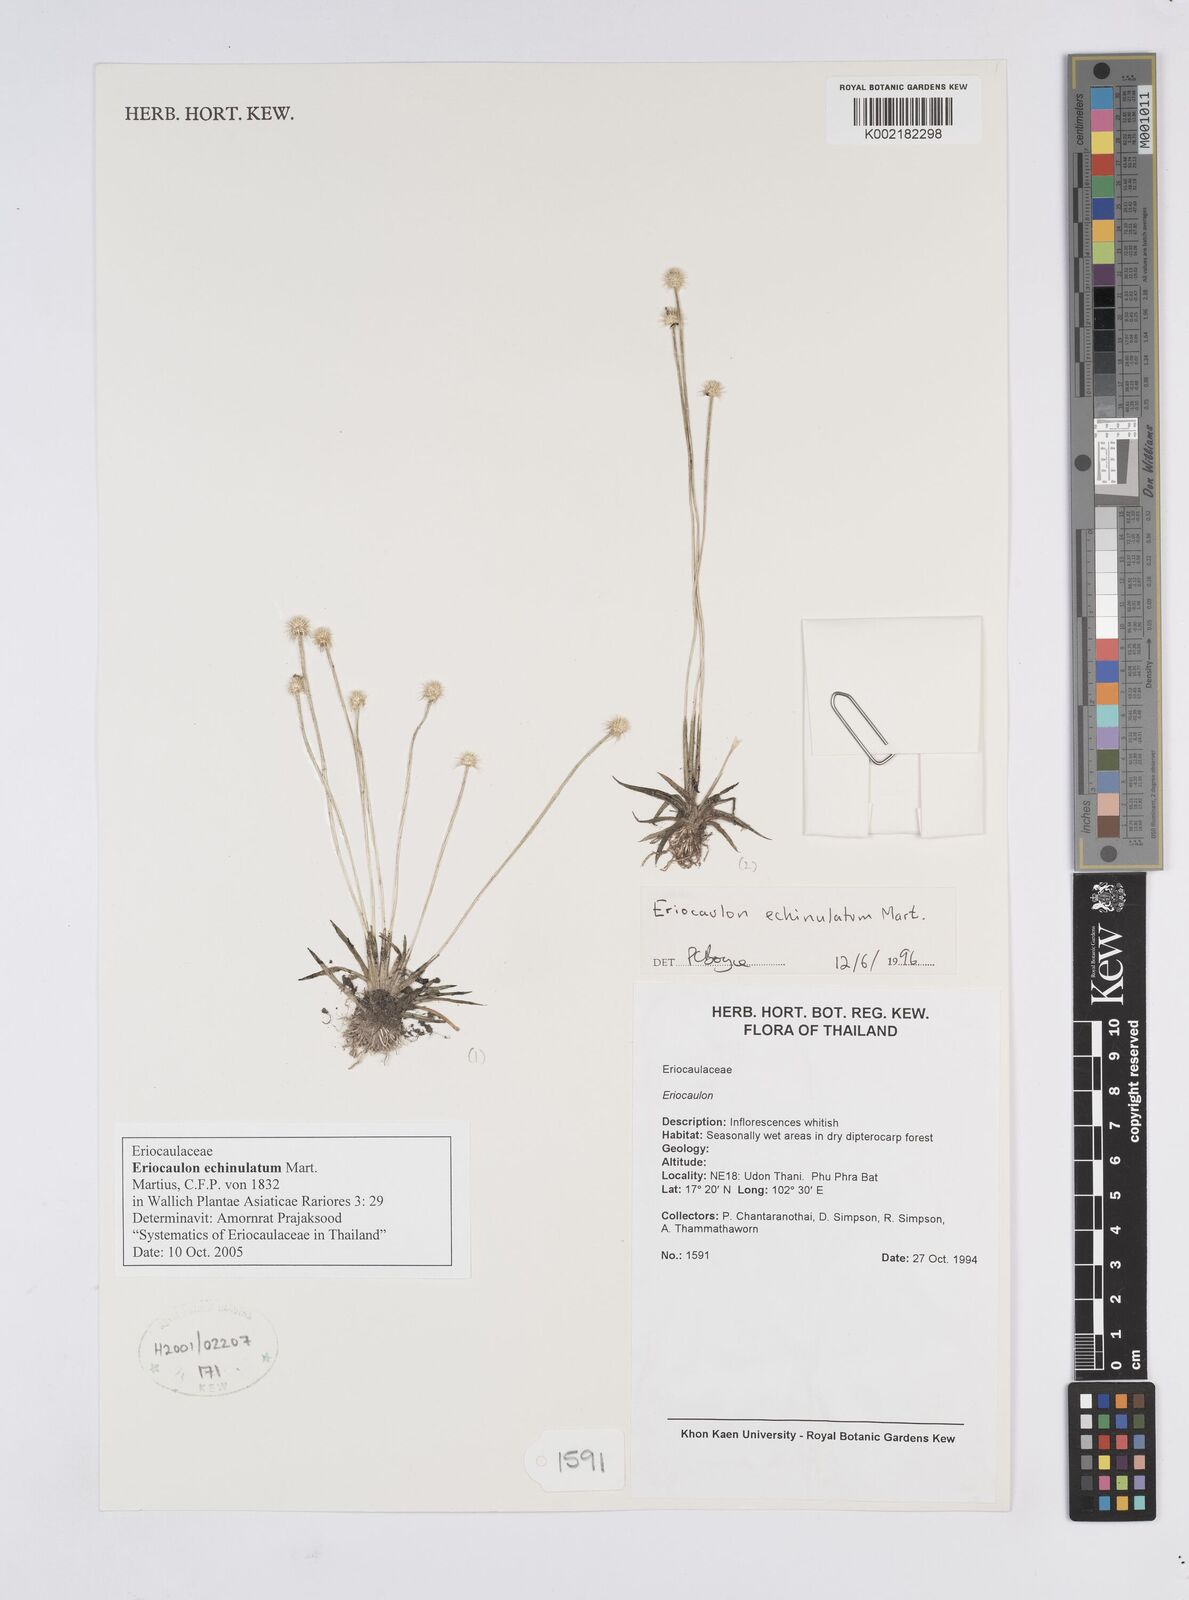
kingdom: Plantae
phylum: Tracheophyta
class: Liliopsida
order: Poales
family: Eriocaulaceae
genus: Eriocaulon
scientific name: Eriocaulon echinulatum
